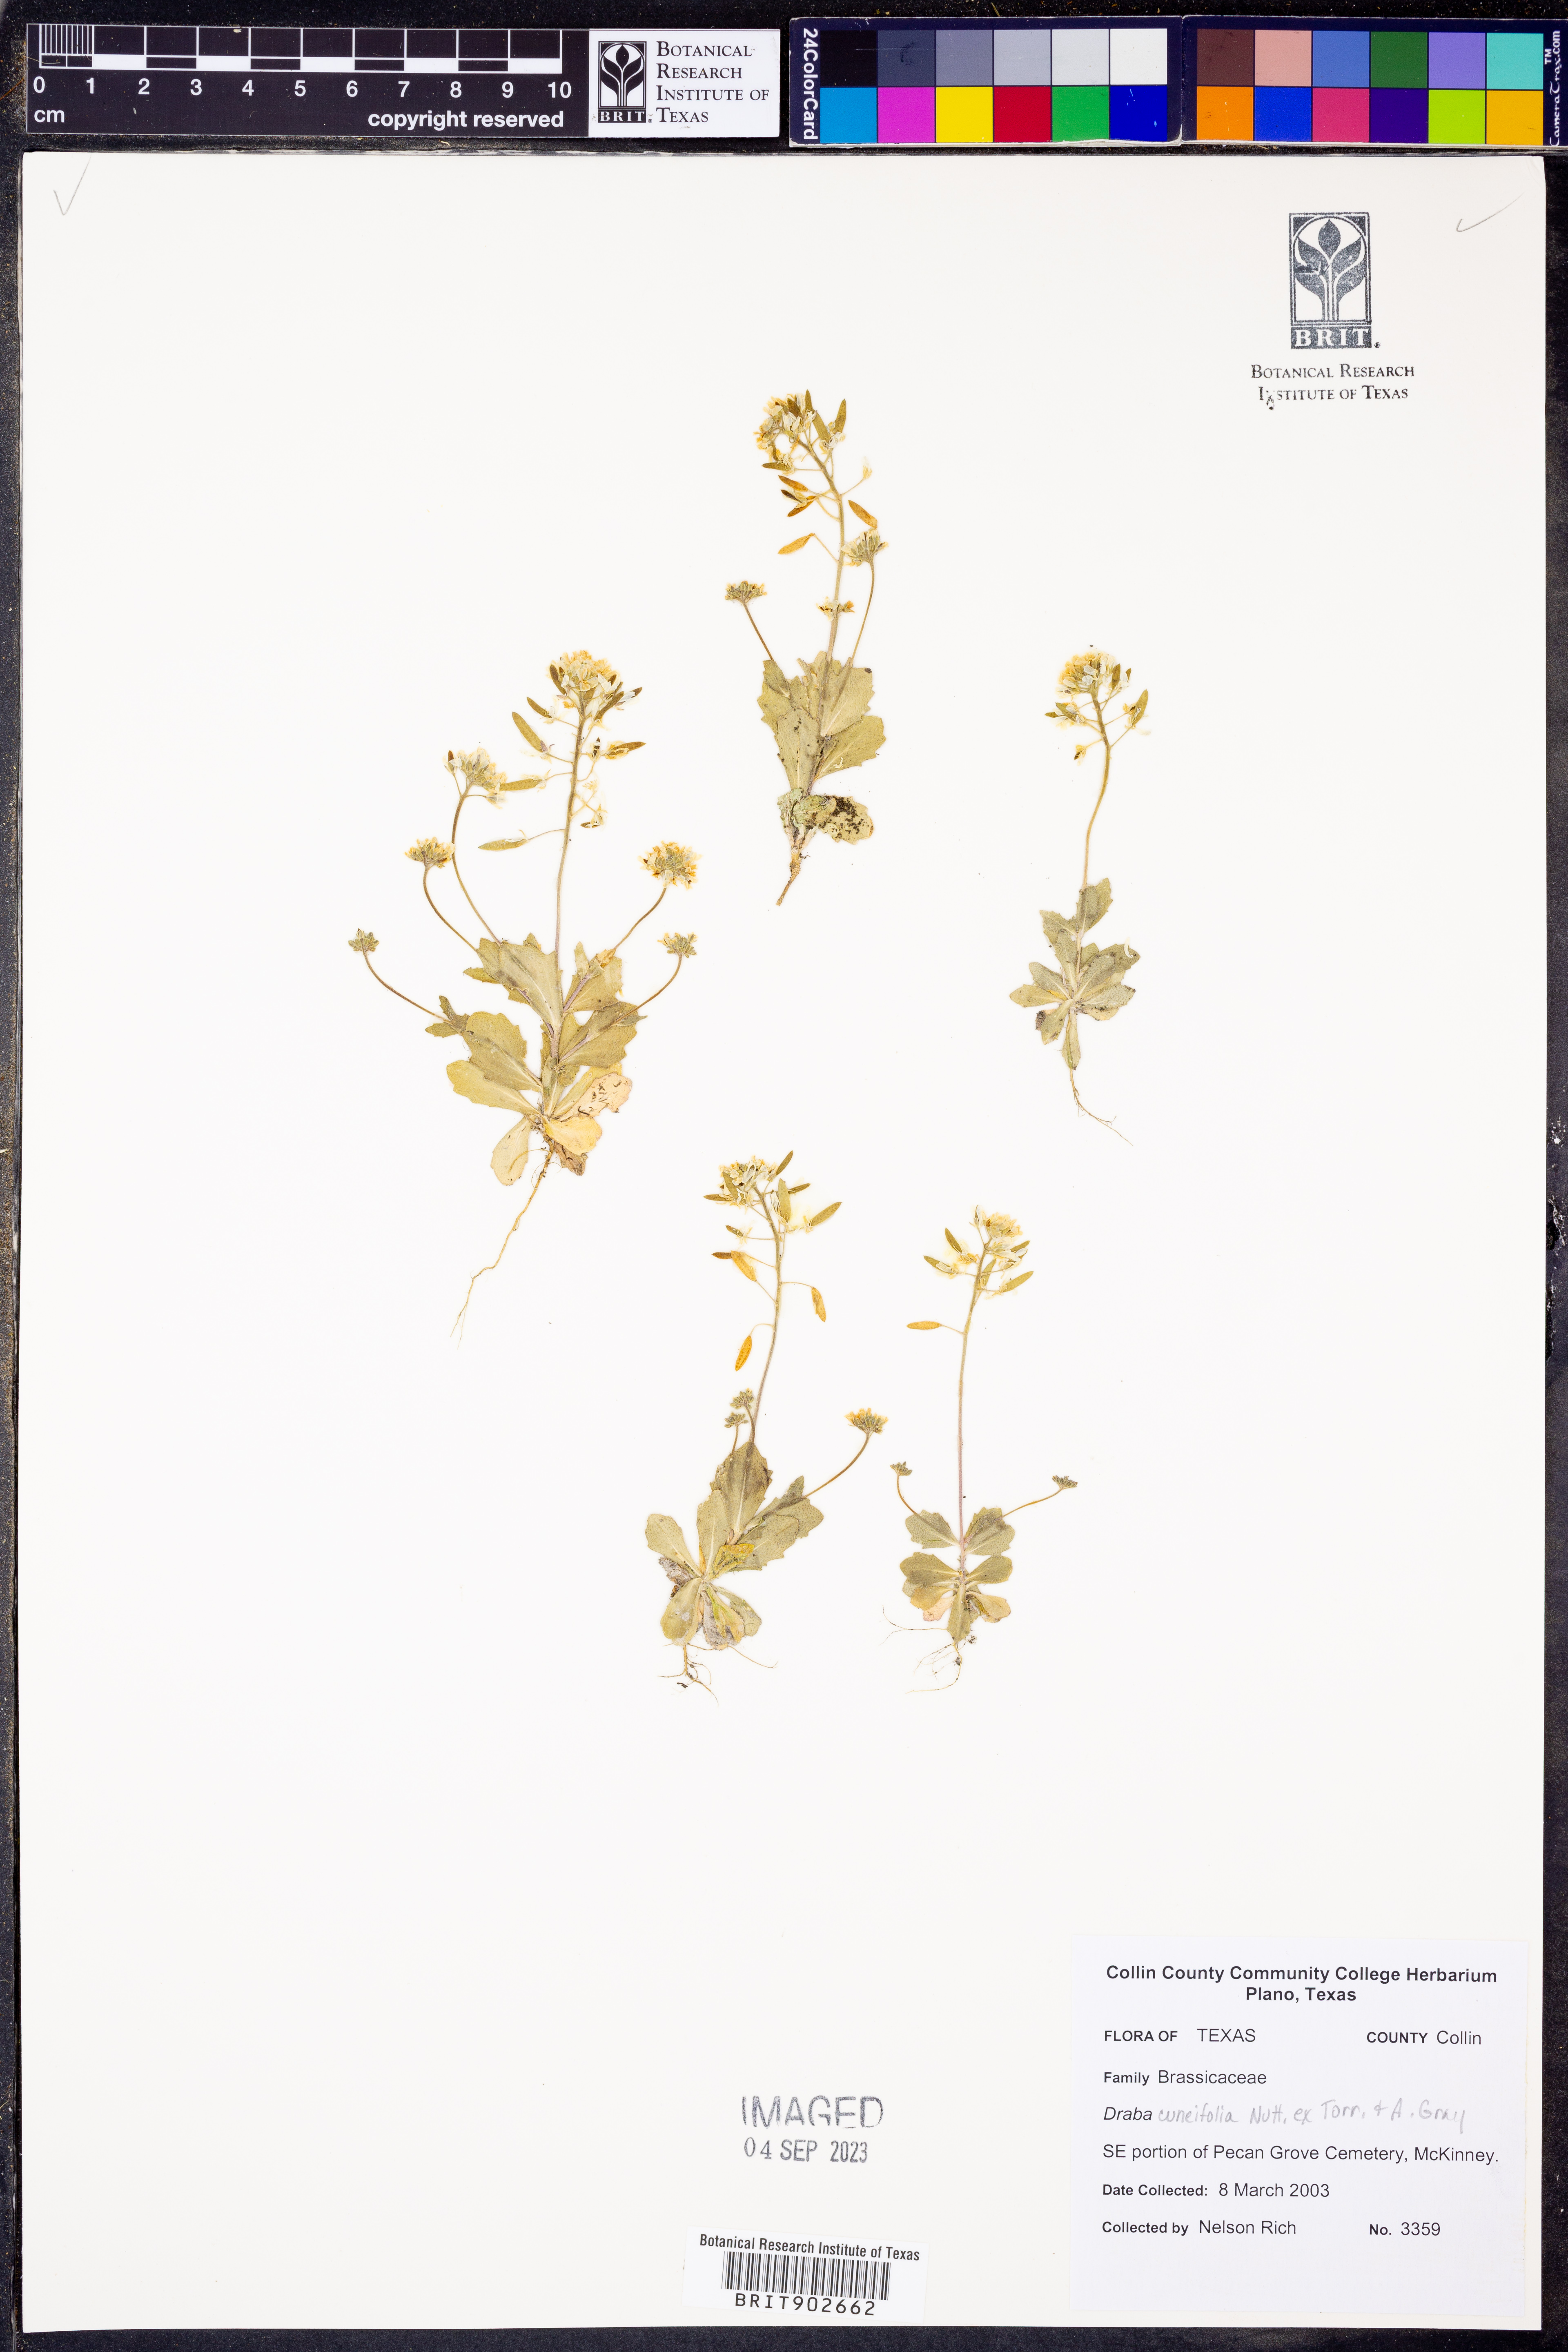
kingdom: Plantae
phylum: Tracheophyta
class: Magnoliopsida
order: Brassicales
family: Brassicaceae
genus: Tomostima
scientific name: Tomostima cuneifolia
